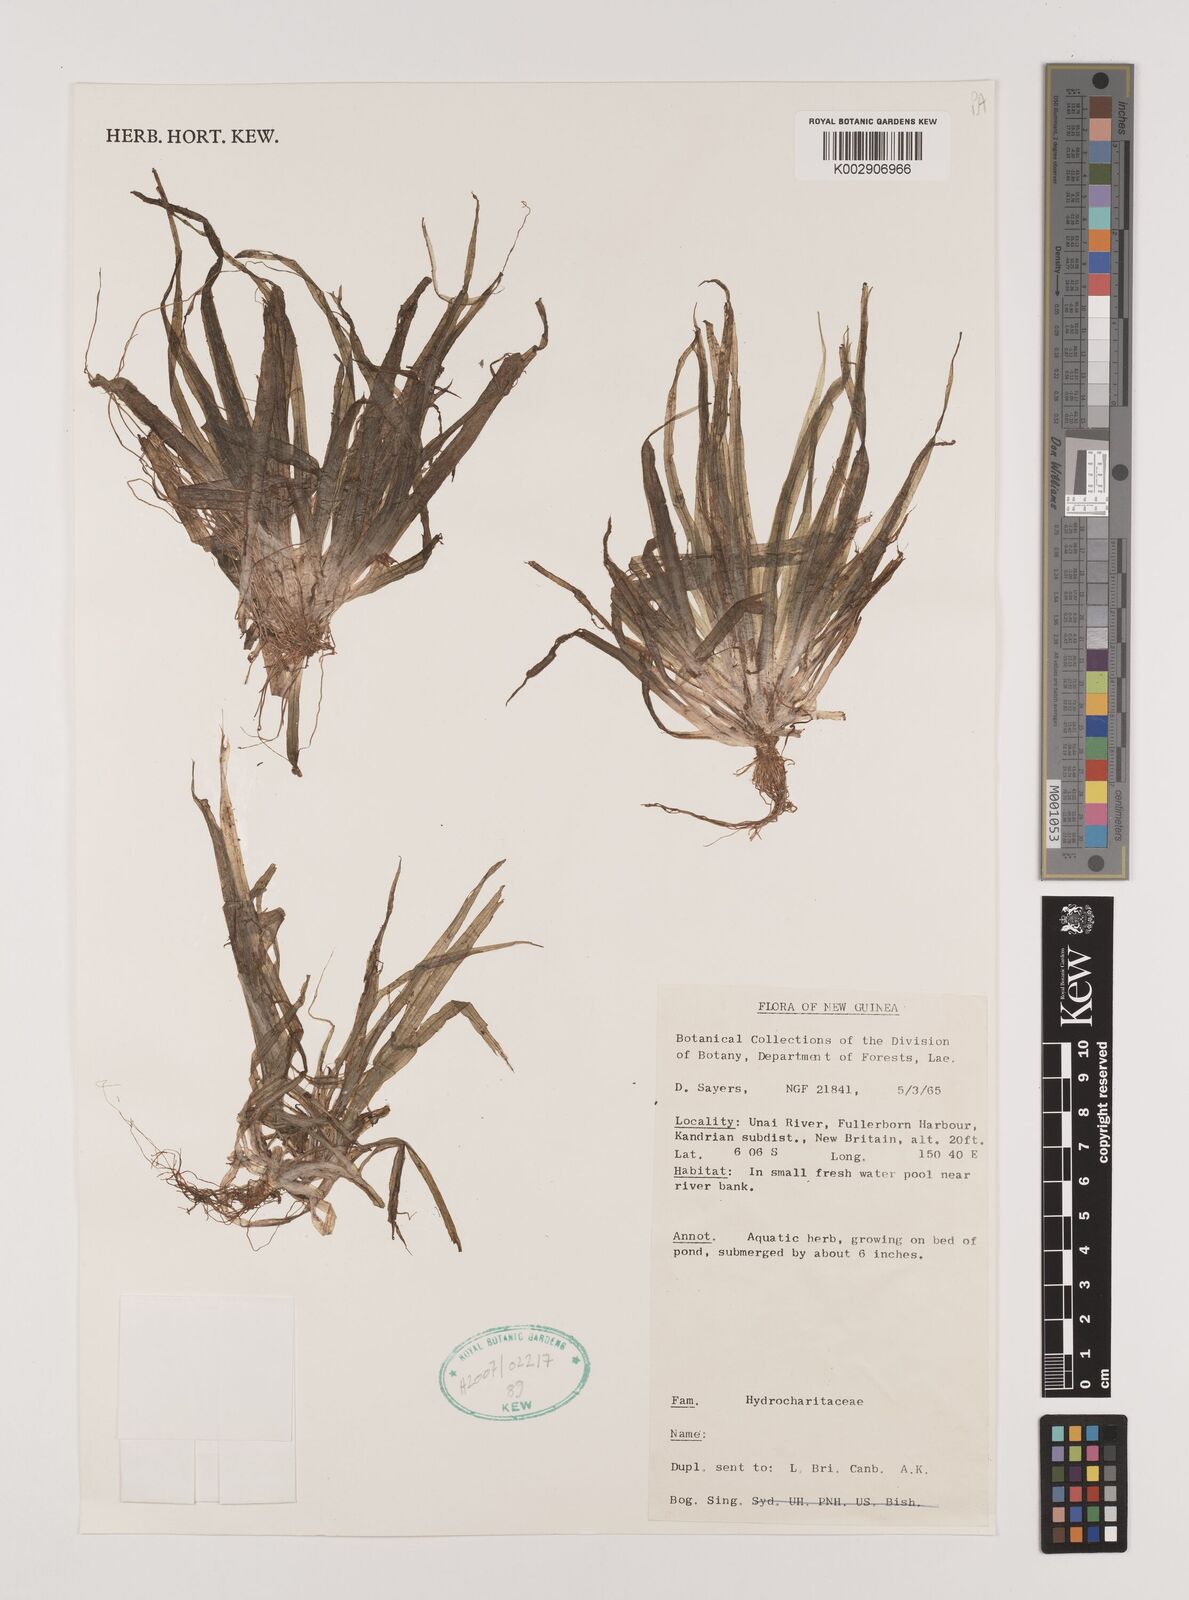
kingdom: Plantae
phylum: Tracheophyta
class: Liliopsida
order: Alismatales
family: Hydrocharitaceae
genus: Vallisneria
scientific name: Vallisneria
